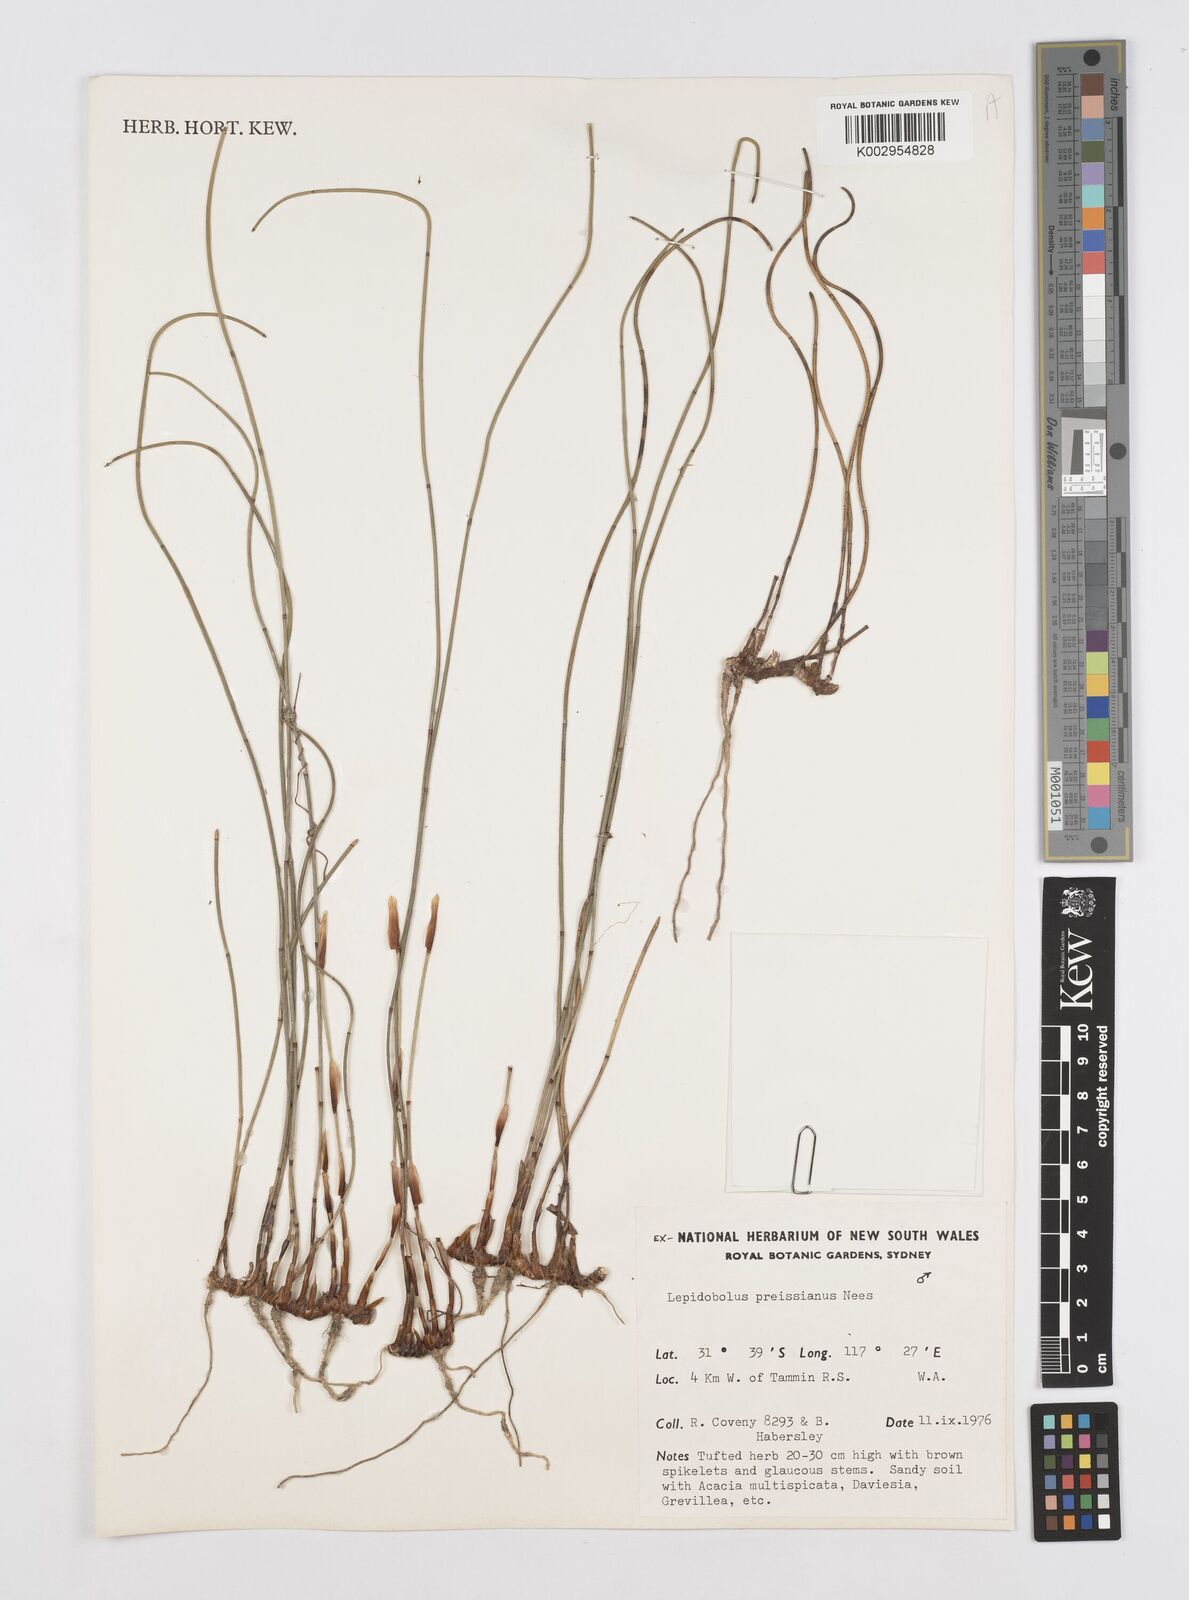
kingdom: Plantae
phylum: Tracheophyta
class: Liliopsida
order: Poales
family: Restionaceae
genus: Lepidobolus
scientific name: Lepidobolus preissianus
